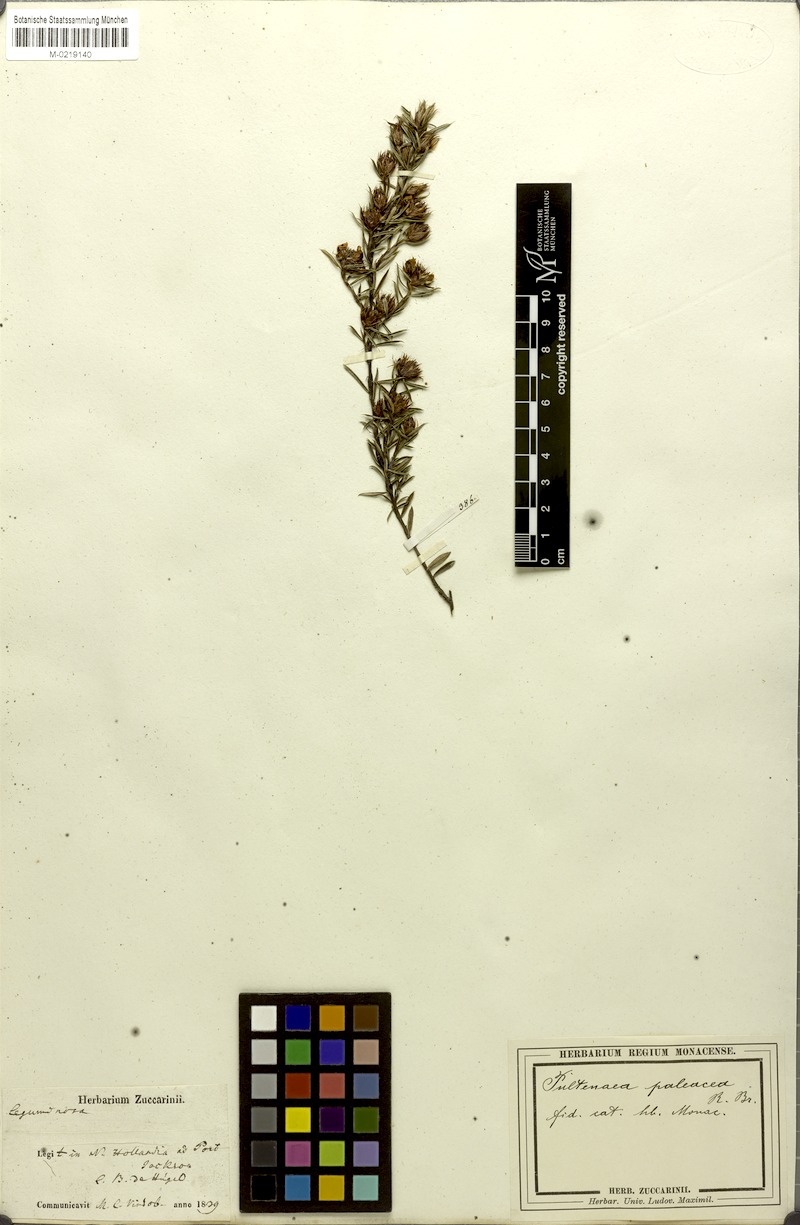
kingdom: Plantae
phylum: Tracheophyta
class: Magnoliopsida
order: Fabales
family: Fabaceae
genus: Pultenaea
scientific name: Pultenaea paleacea
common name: Chaffy bush-pea
